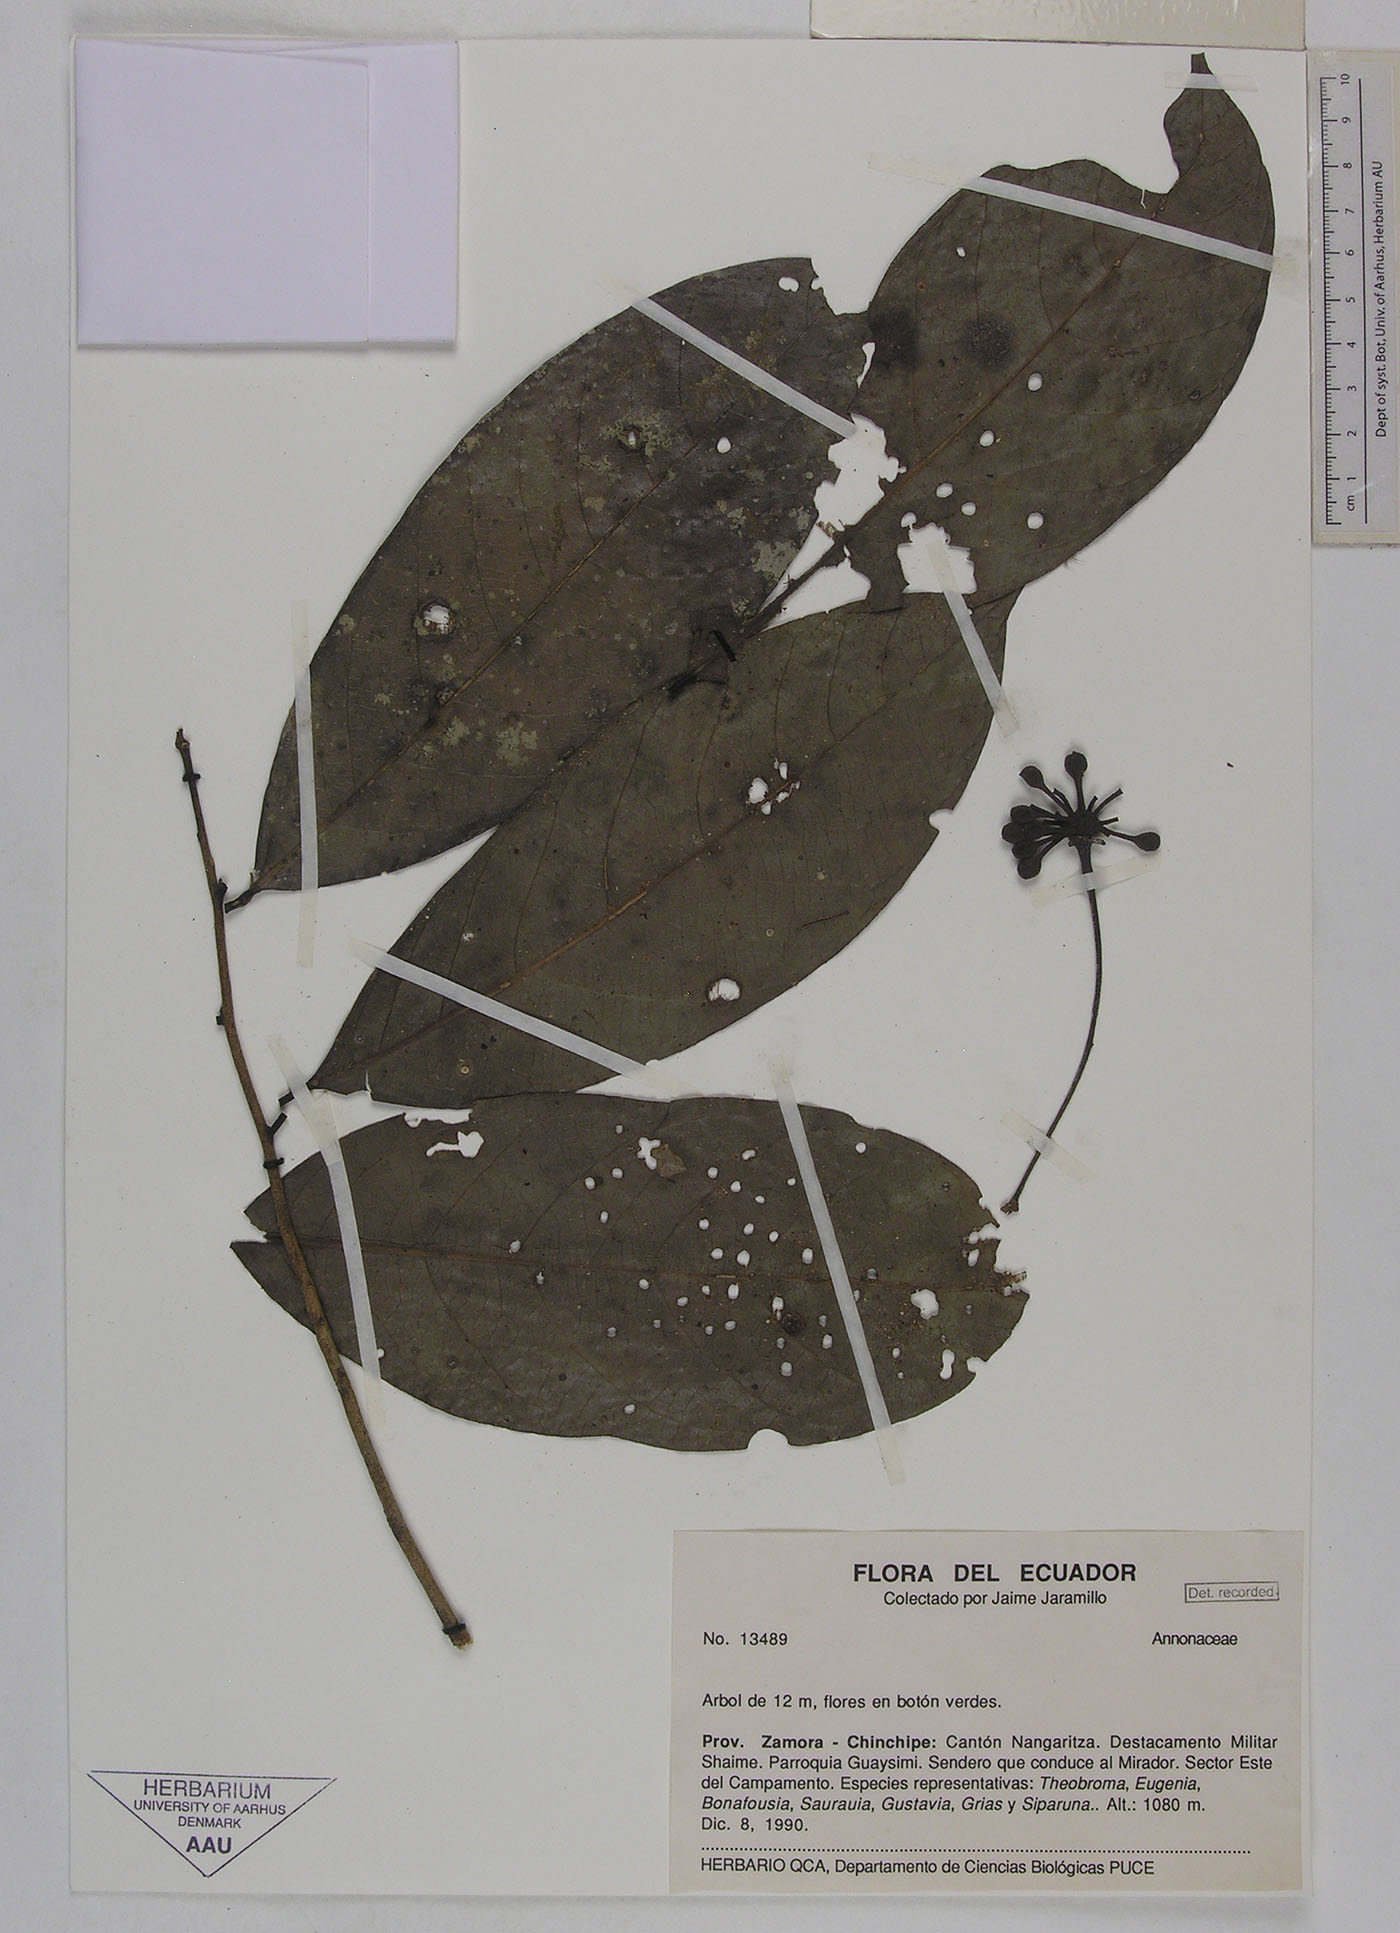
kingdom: Plantae
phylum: Tracheophyta
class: Magnoliopsida
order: Magnoliales
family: Annonaceae
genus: Cremastosperma
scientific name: Cremastosperma pedunculatum
